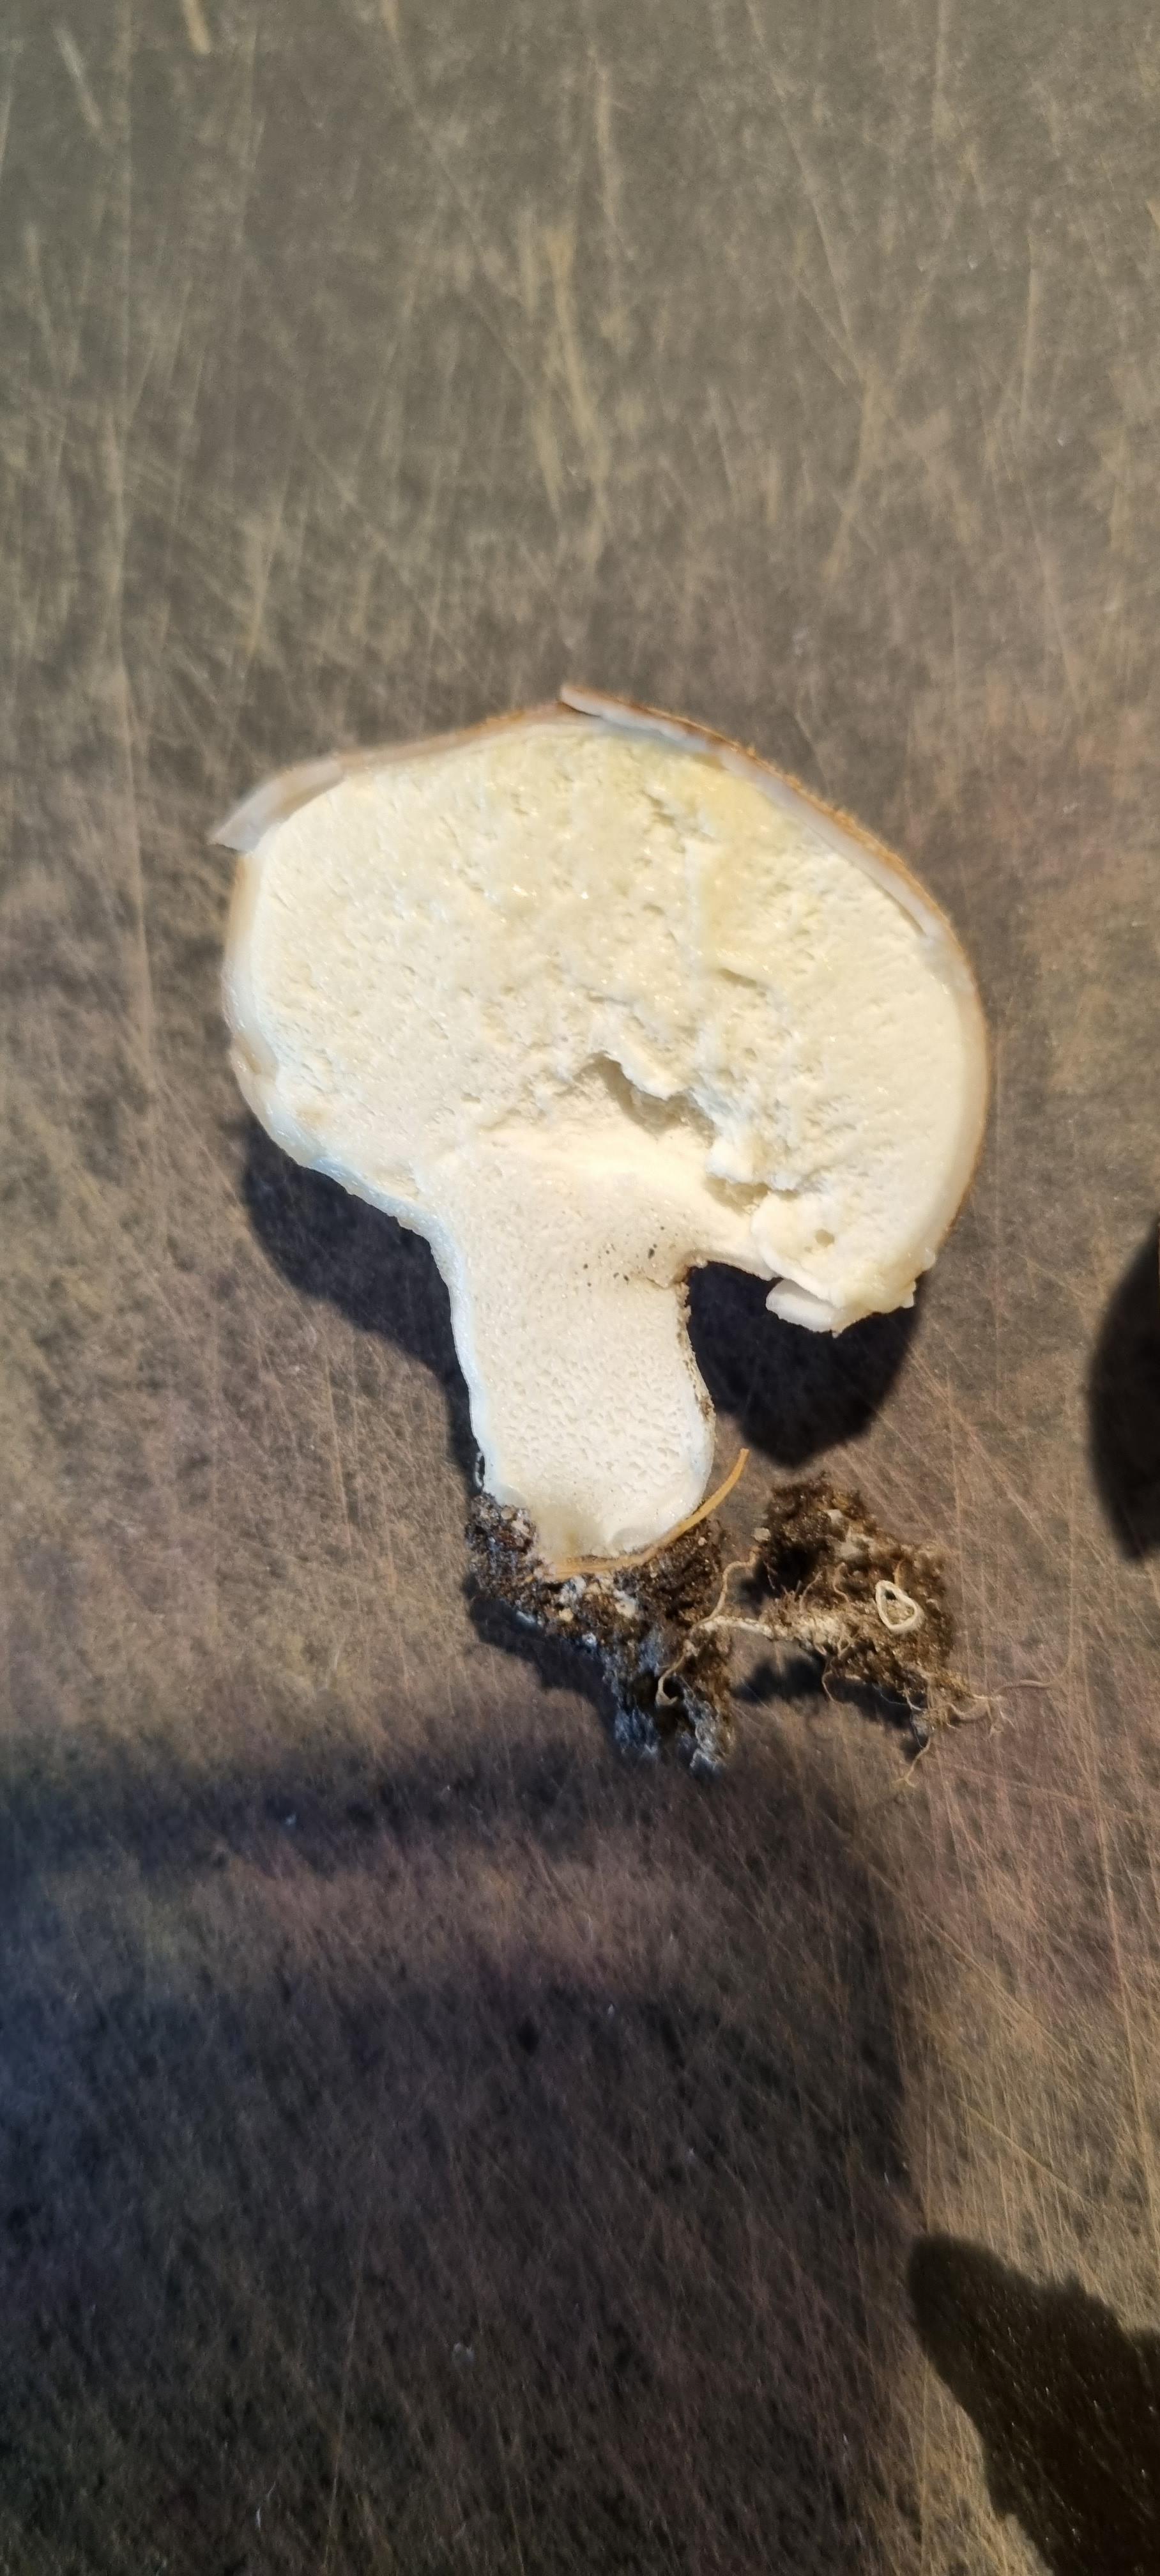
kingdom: Fungi
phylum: Basidiomycota
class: Agaricomycetes
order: Agaricales
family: Lycoperdaceae
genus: Lycoperdon
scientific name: Lycoperdon lividum
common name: mark-støvbold
